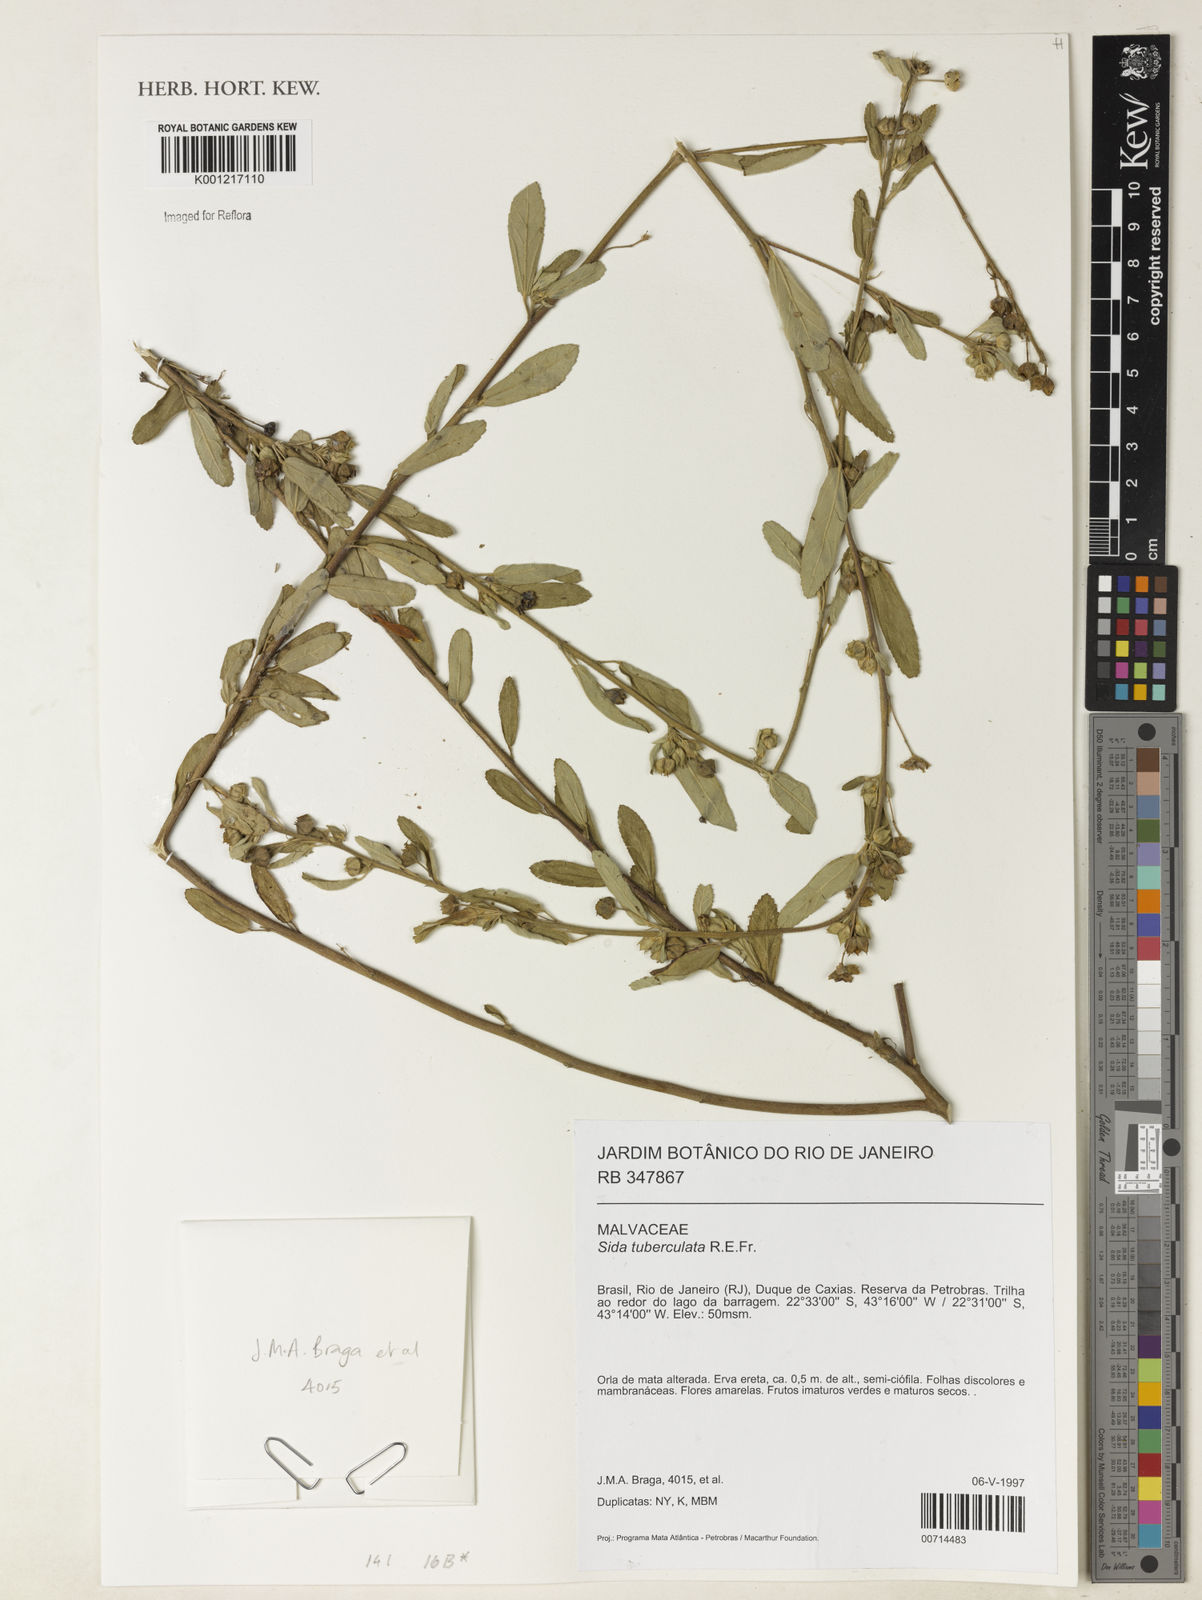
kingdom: Plantae
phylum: Tracheophyta
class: Magnoliopsida
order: Malvales
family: Malvaceae
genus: Sida
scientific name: Sida tuberculata
